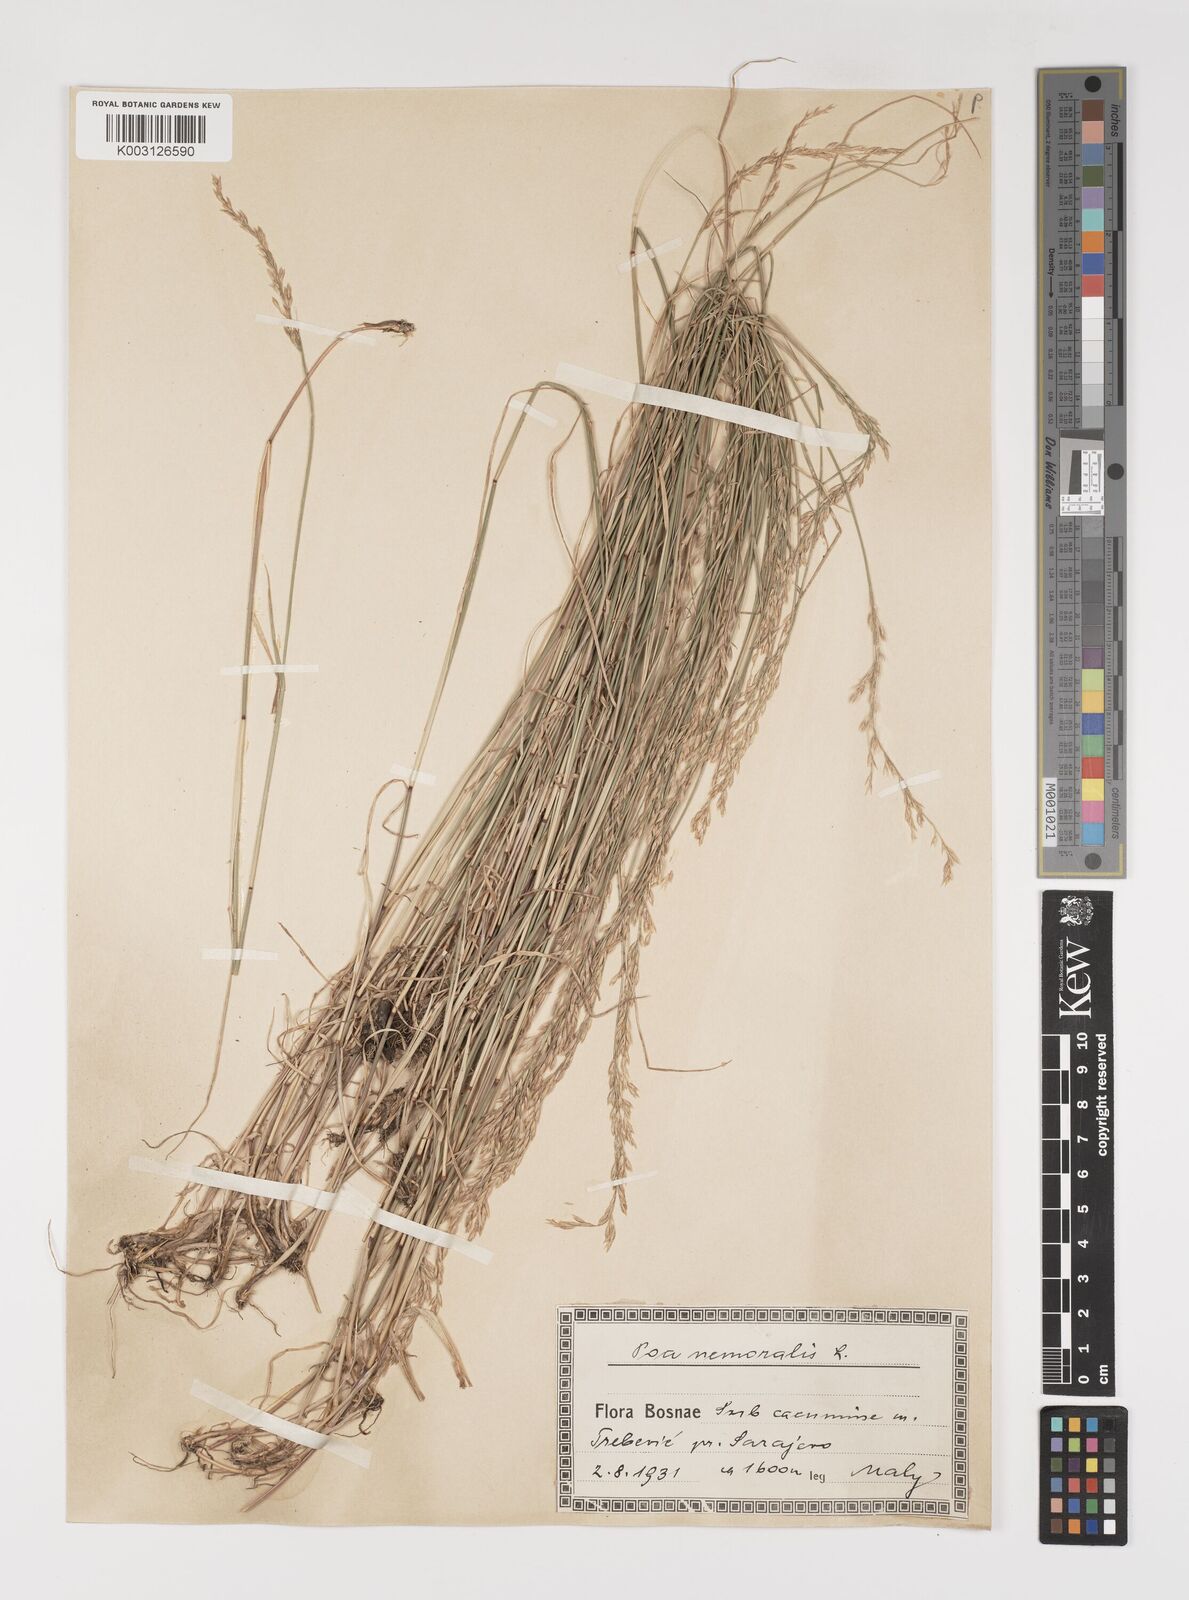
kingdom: Plantae
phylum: Tracheophyta
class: Liliopsida
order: Poales
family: Poaceae
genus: Poa
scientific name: Poa nemoralis
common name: Wood bluegrass
